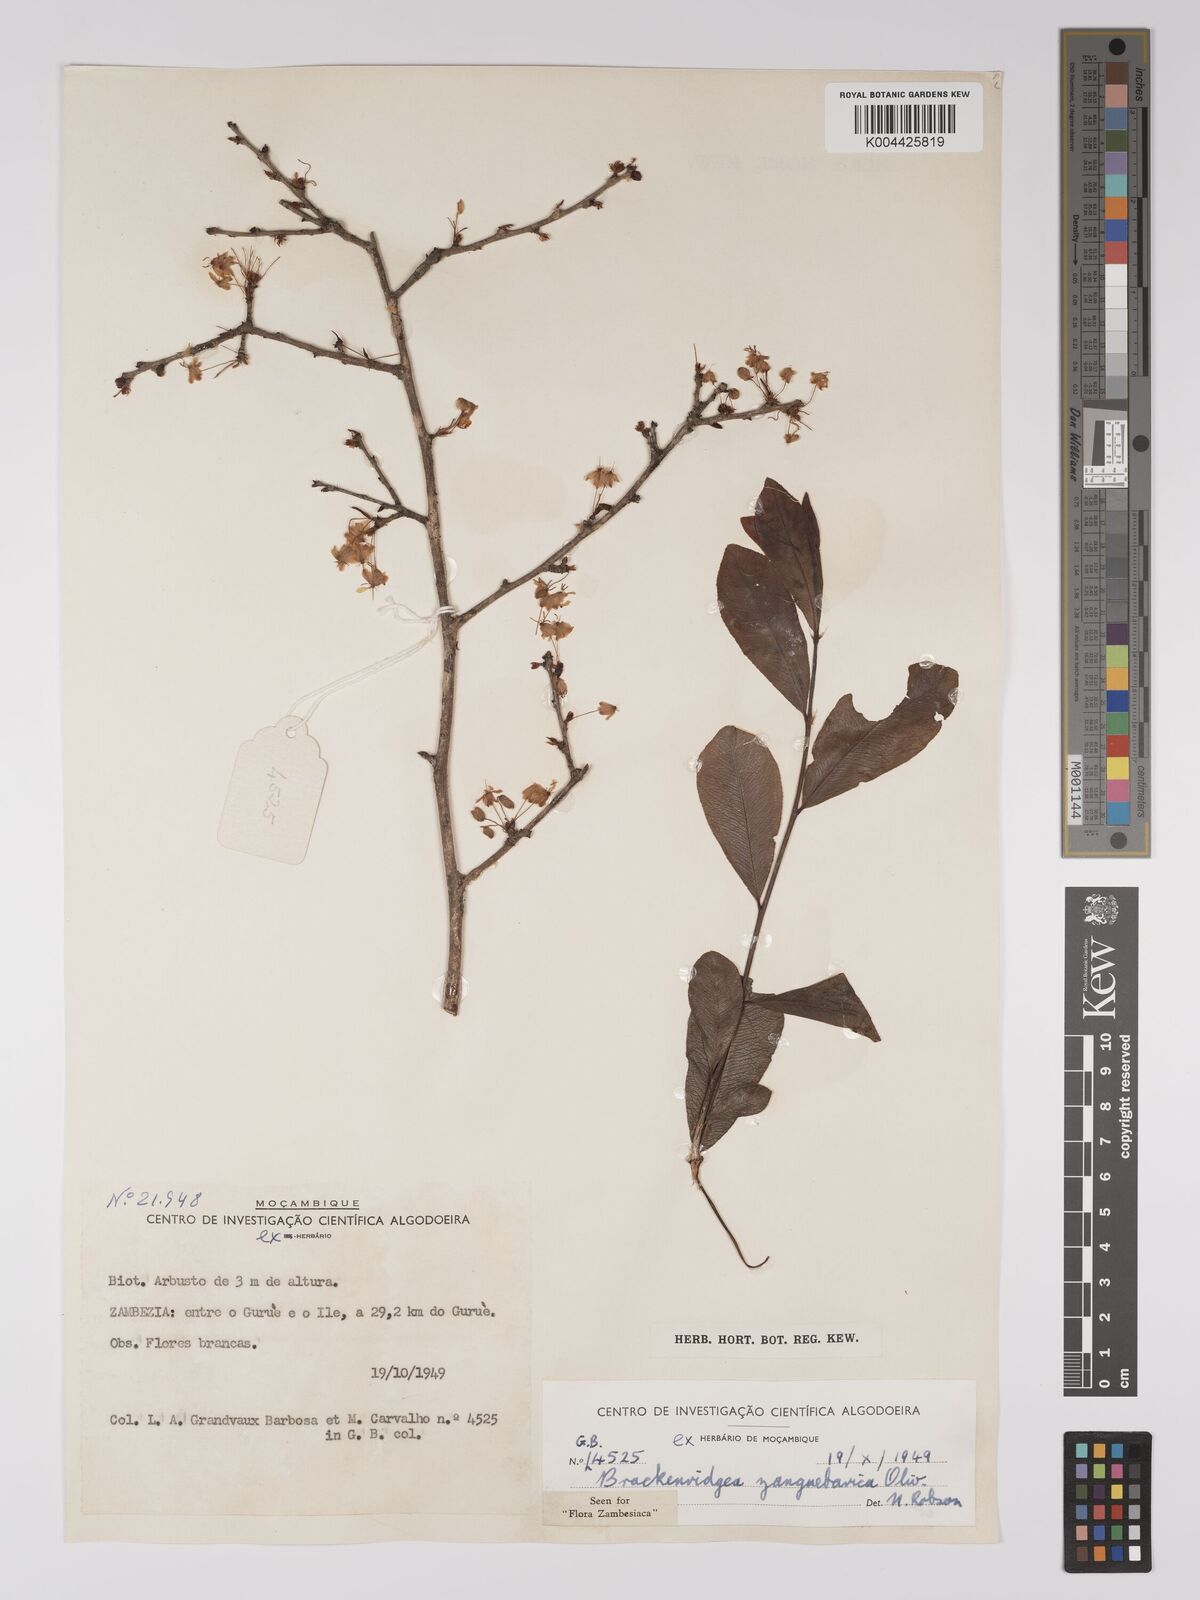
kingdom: Plantae
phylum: Tracheophyta
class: Magnoliopsida
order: Malpighiales
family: Ochnaceae
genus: Brackenridgea
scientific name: Brackenridgea zanguebarica
